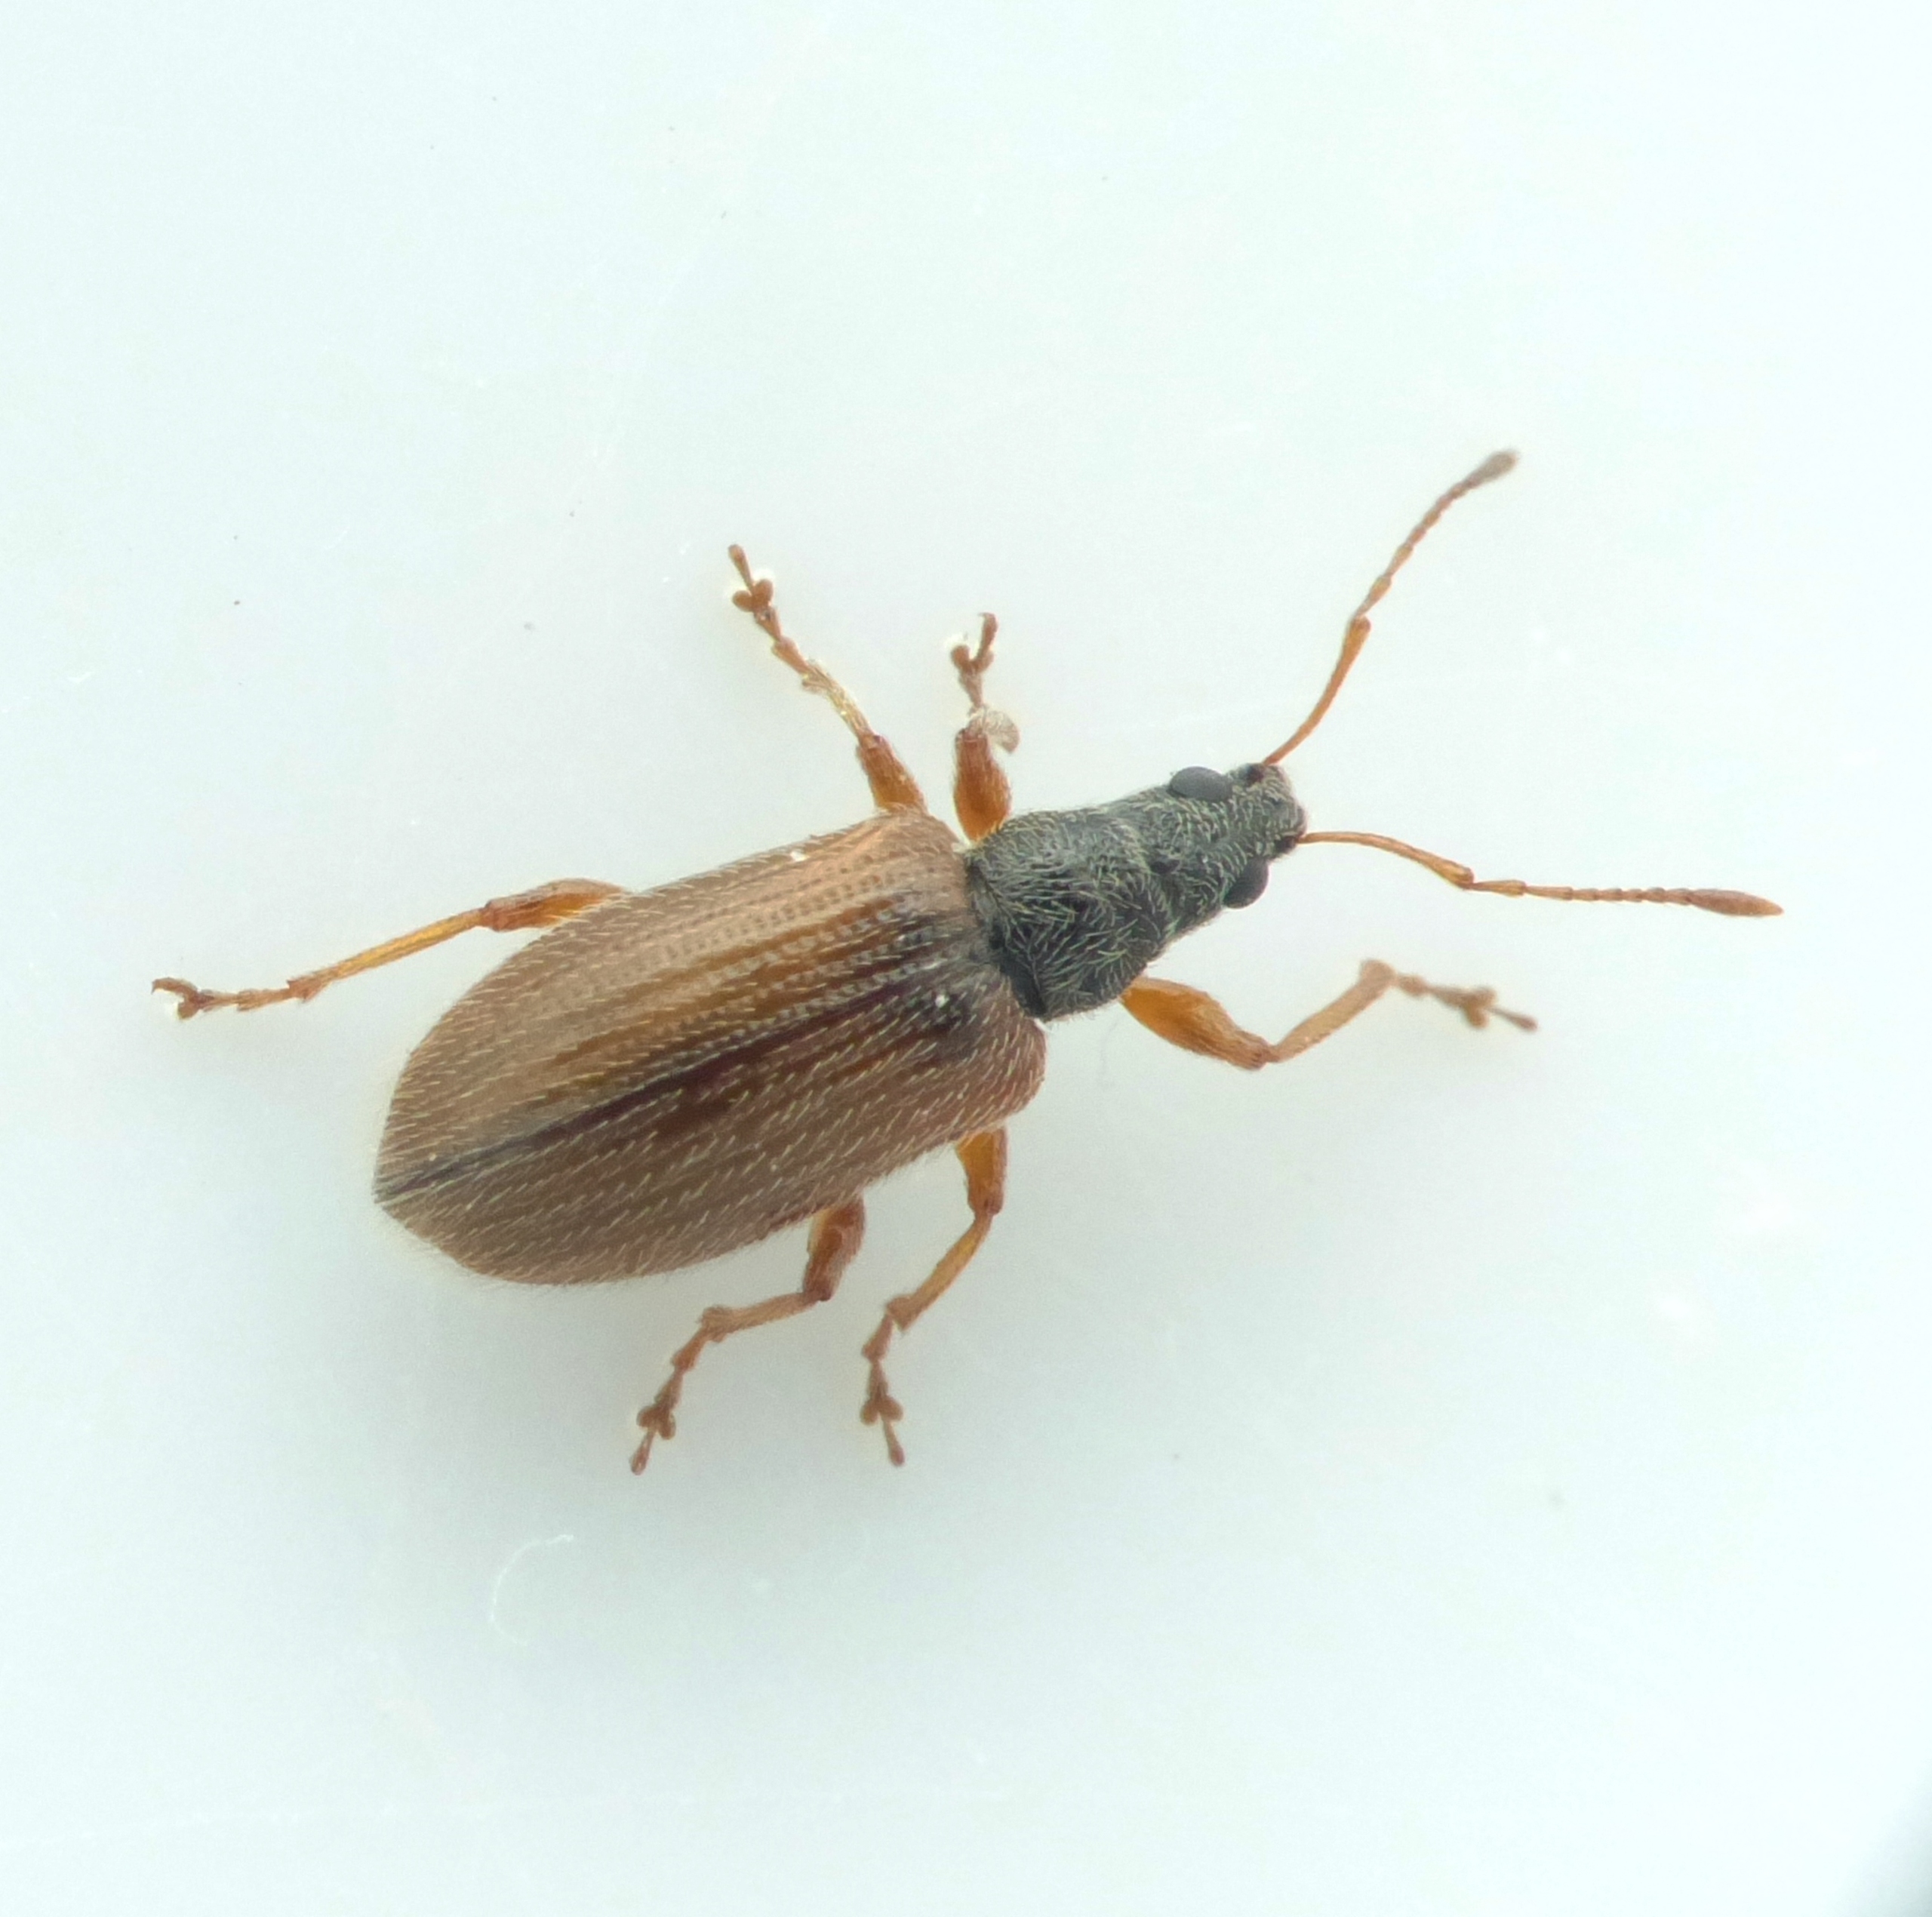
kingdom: Animalia
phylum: Arthropoda
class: Insecta
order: Coleoptera
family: Curculionidae
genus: Phyllobius
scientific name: Phyllobius oblongus
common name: Frugttræløvsnudebille
